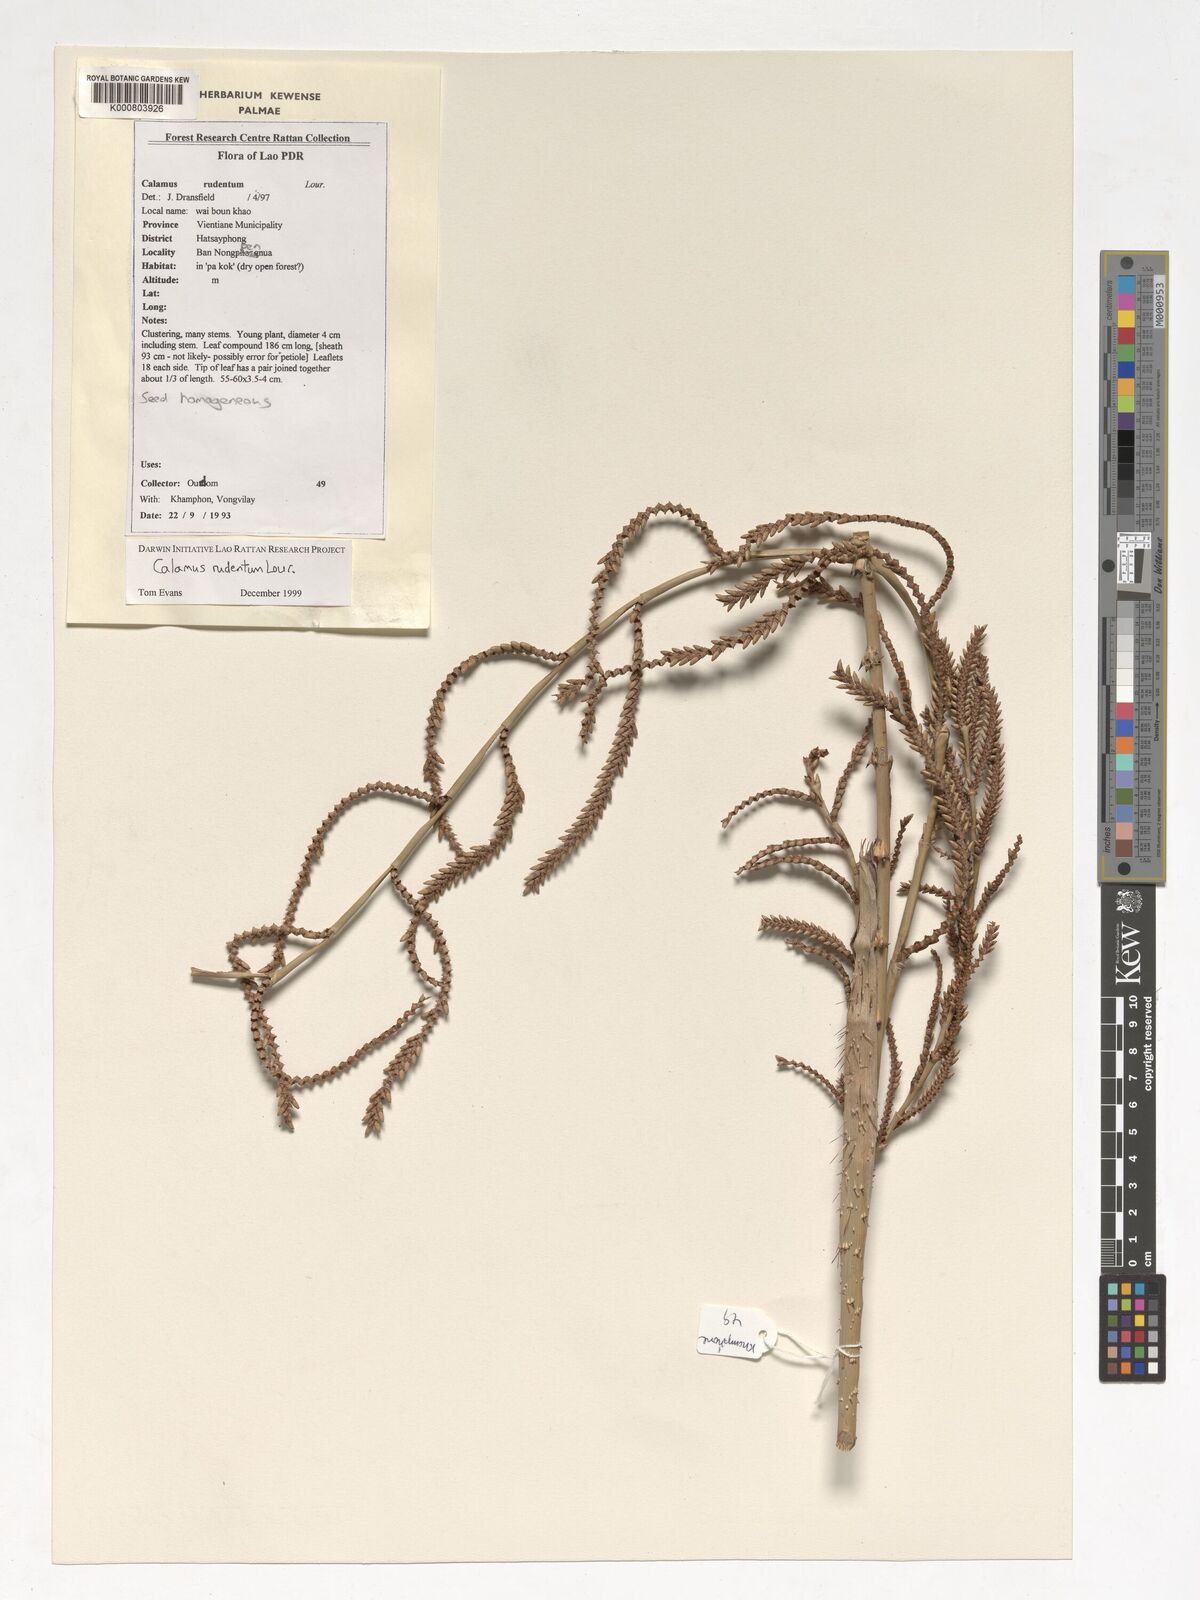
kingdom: Plantae
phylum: Tracheophyta
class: Liliopsida
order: Arecales
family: Arecaceae
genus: Calamus
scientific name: Calamus rudentum
